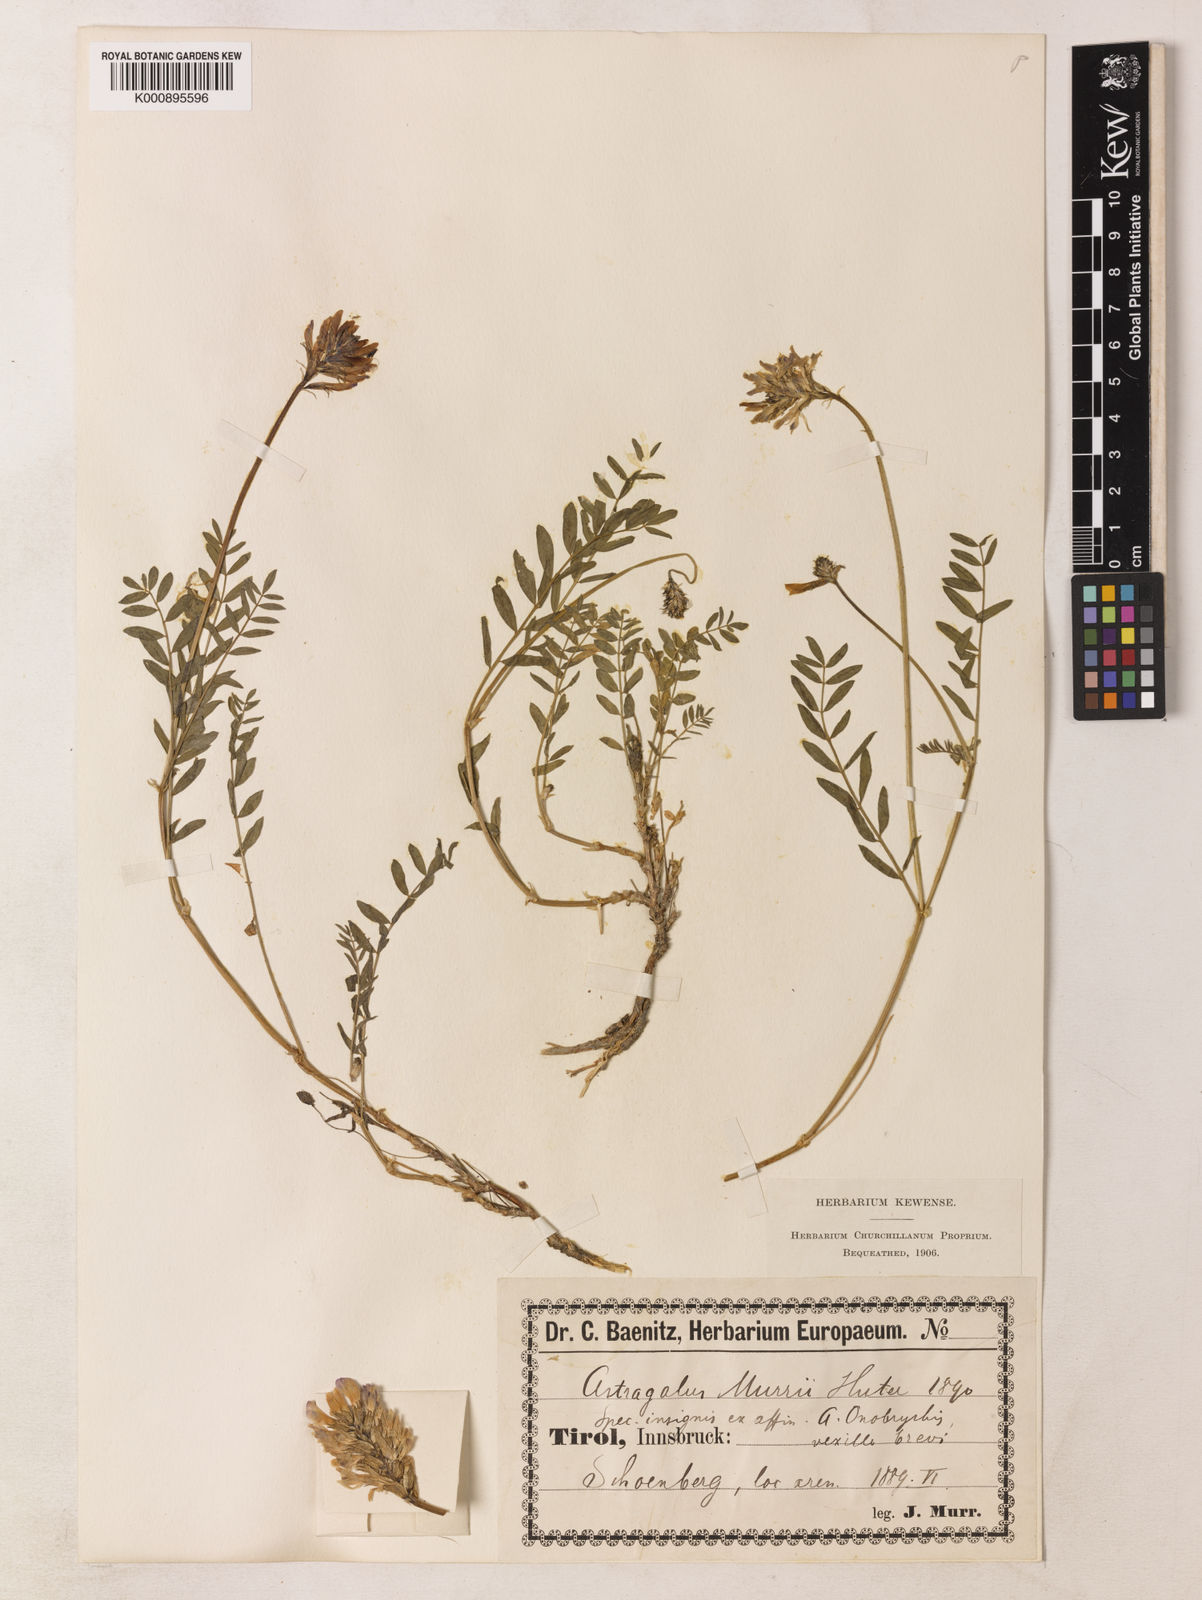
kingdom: Plantae
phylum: Tracheophyta
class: Magnoliopsida
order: Fabales
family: Fabaceae
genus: Astragalus
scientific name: Astragalus leontinus
